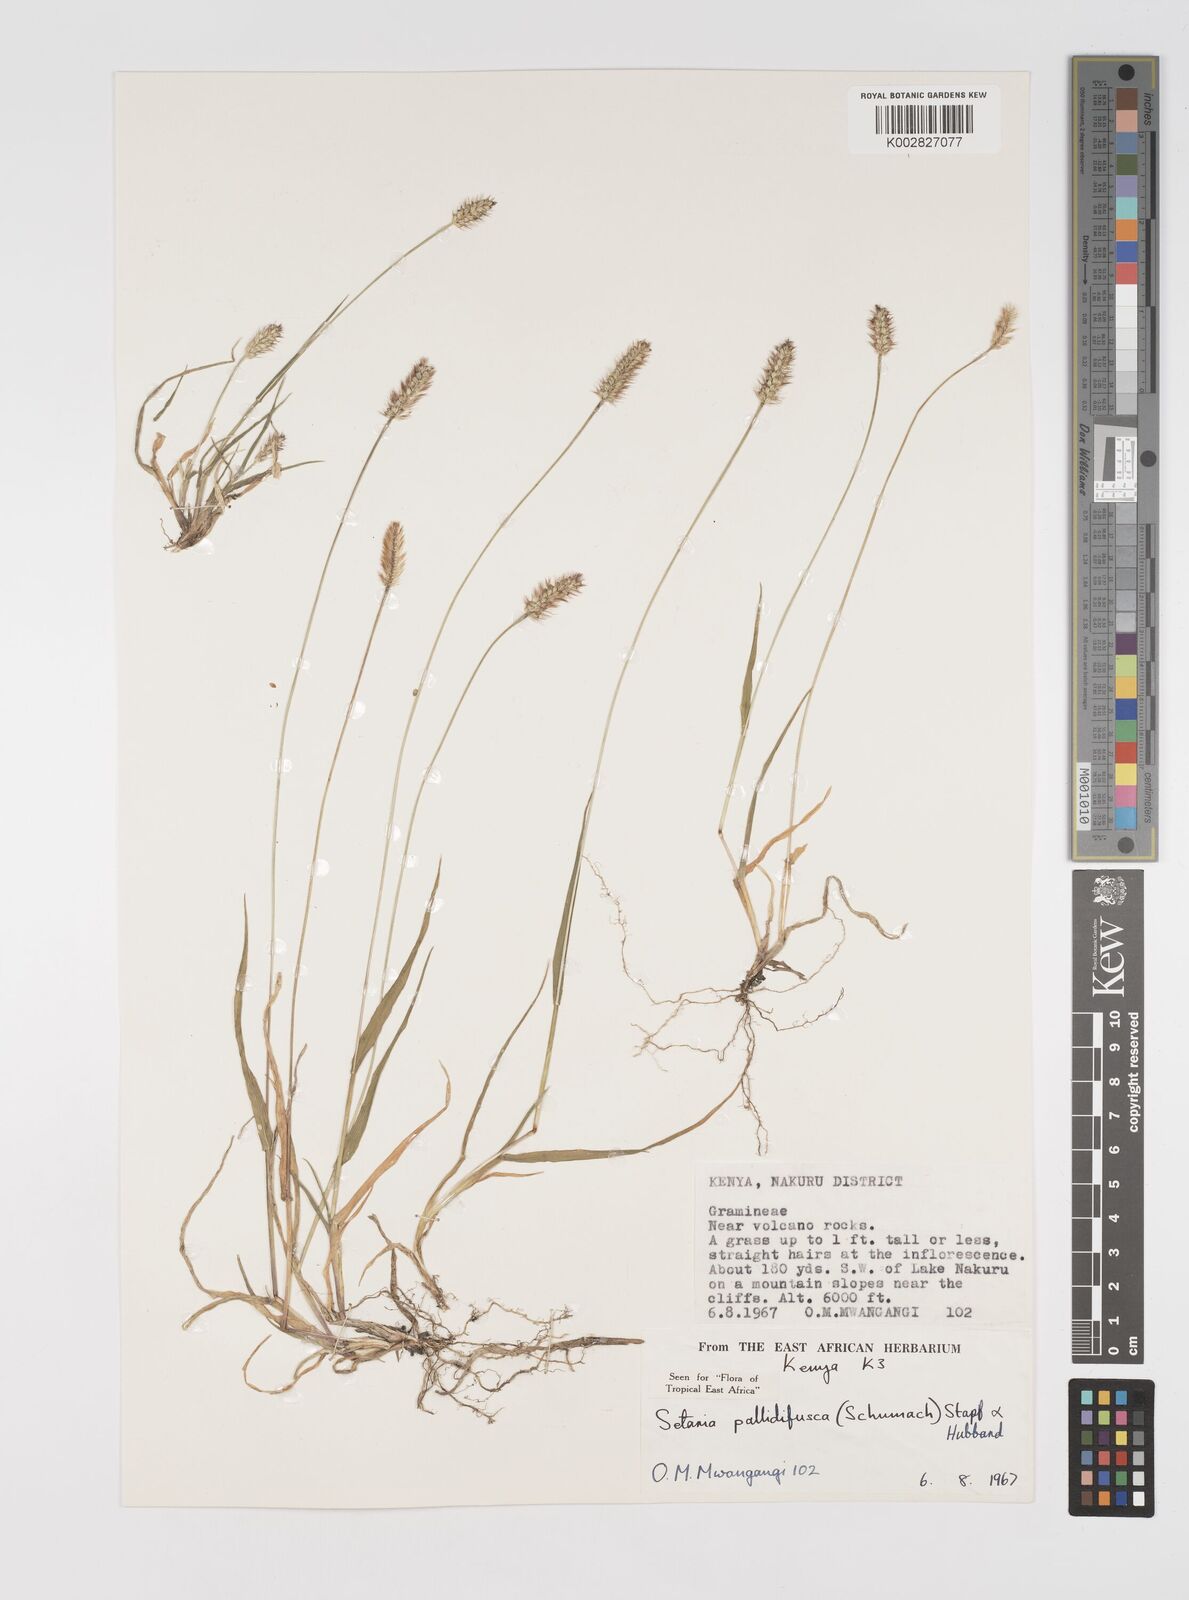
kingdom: Plantae
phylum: Tracheophyta
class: Liliopsida
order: Poales
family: Poaceae
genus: Setaria
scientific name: Setaria pumila
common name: Yellow bristle-grass
